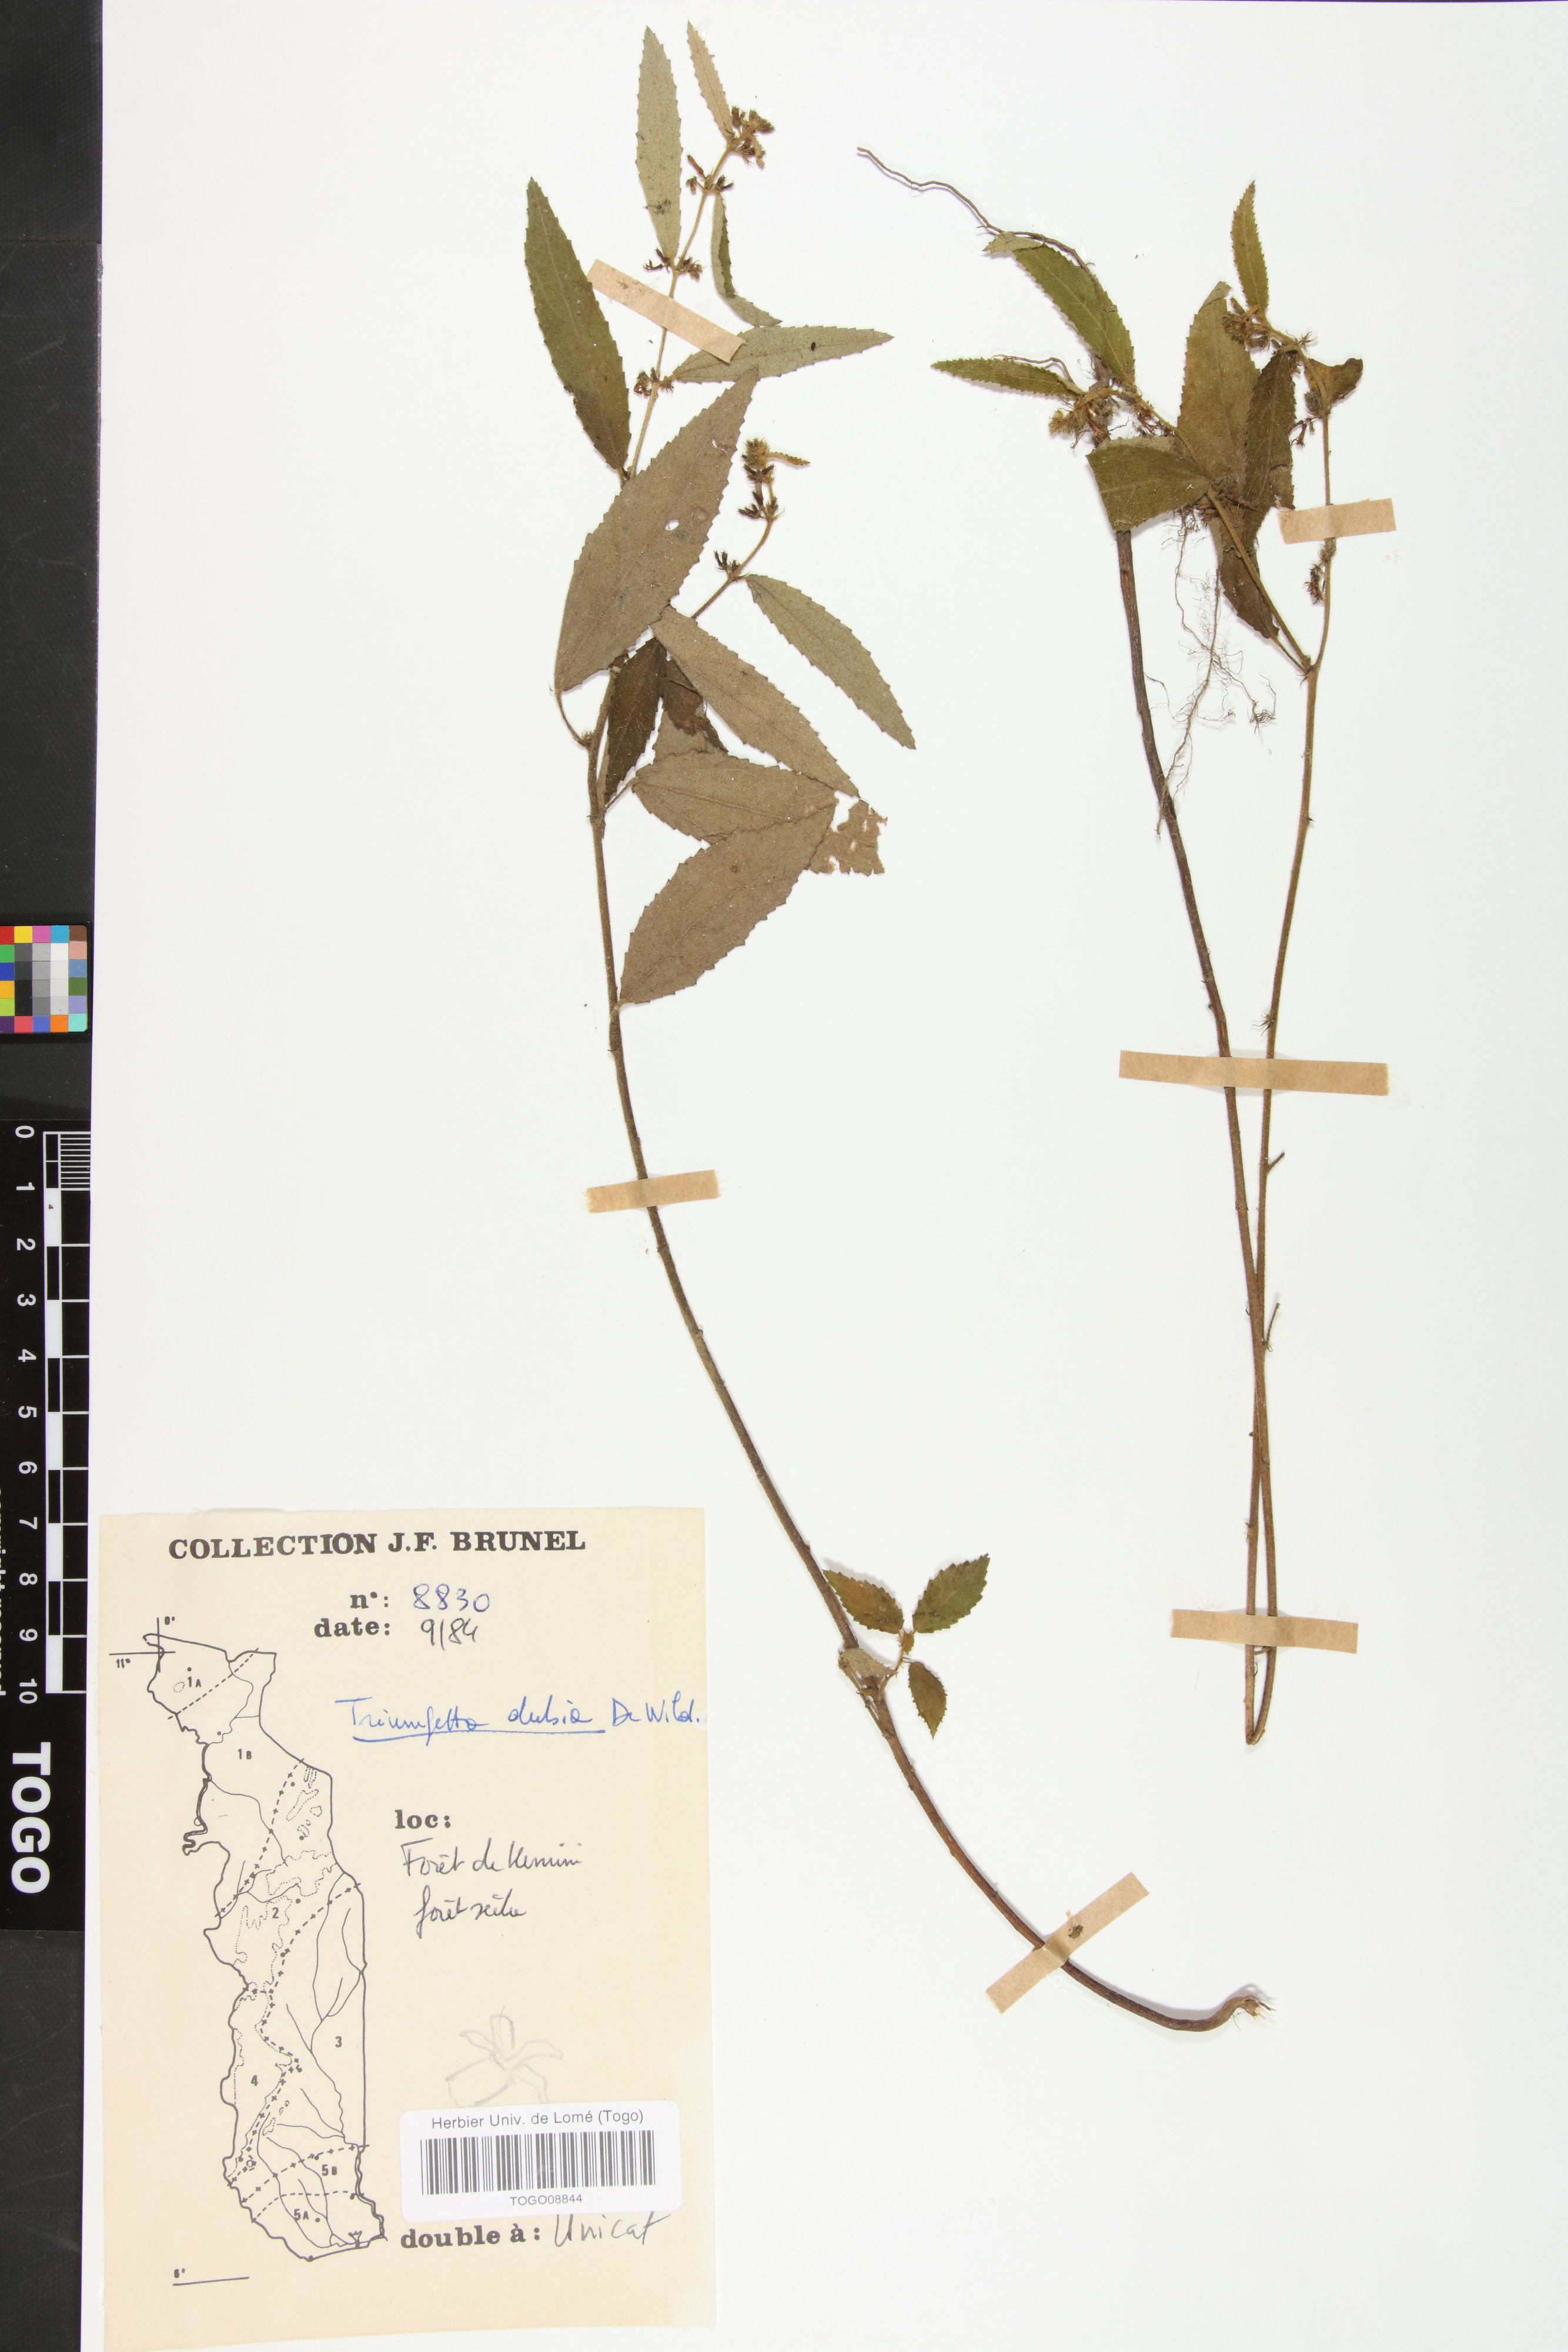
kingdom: Plantae
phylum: Tracheophyta
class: Magnoliopsida
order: Malvales
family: Malvaceae
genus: Triumfetta
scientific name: Triumfetta setulosa
